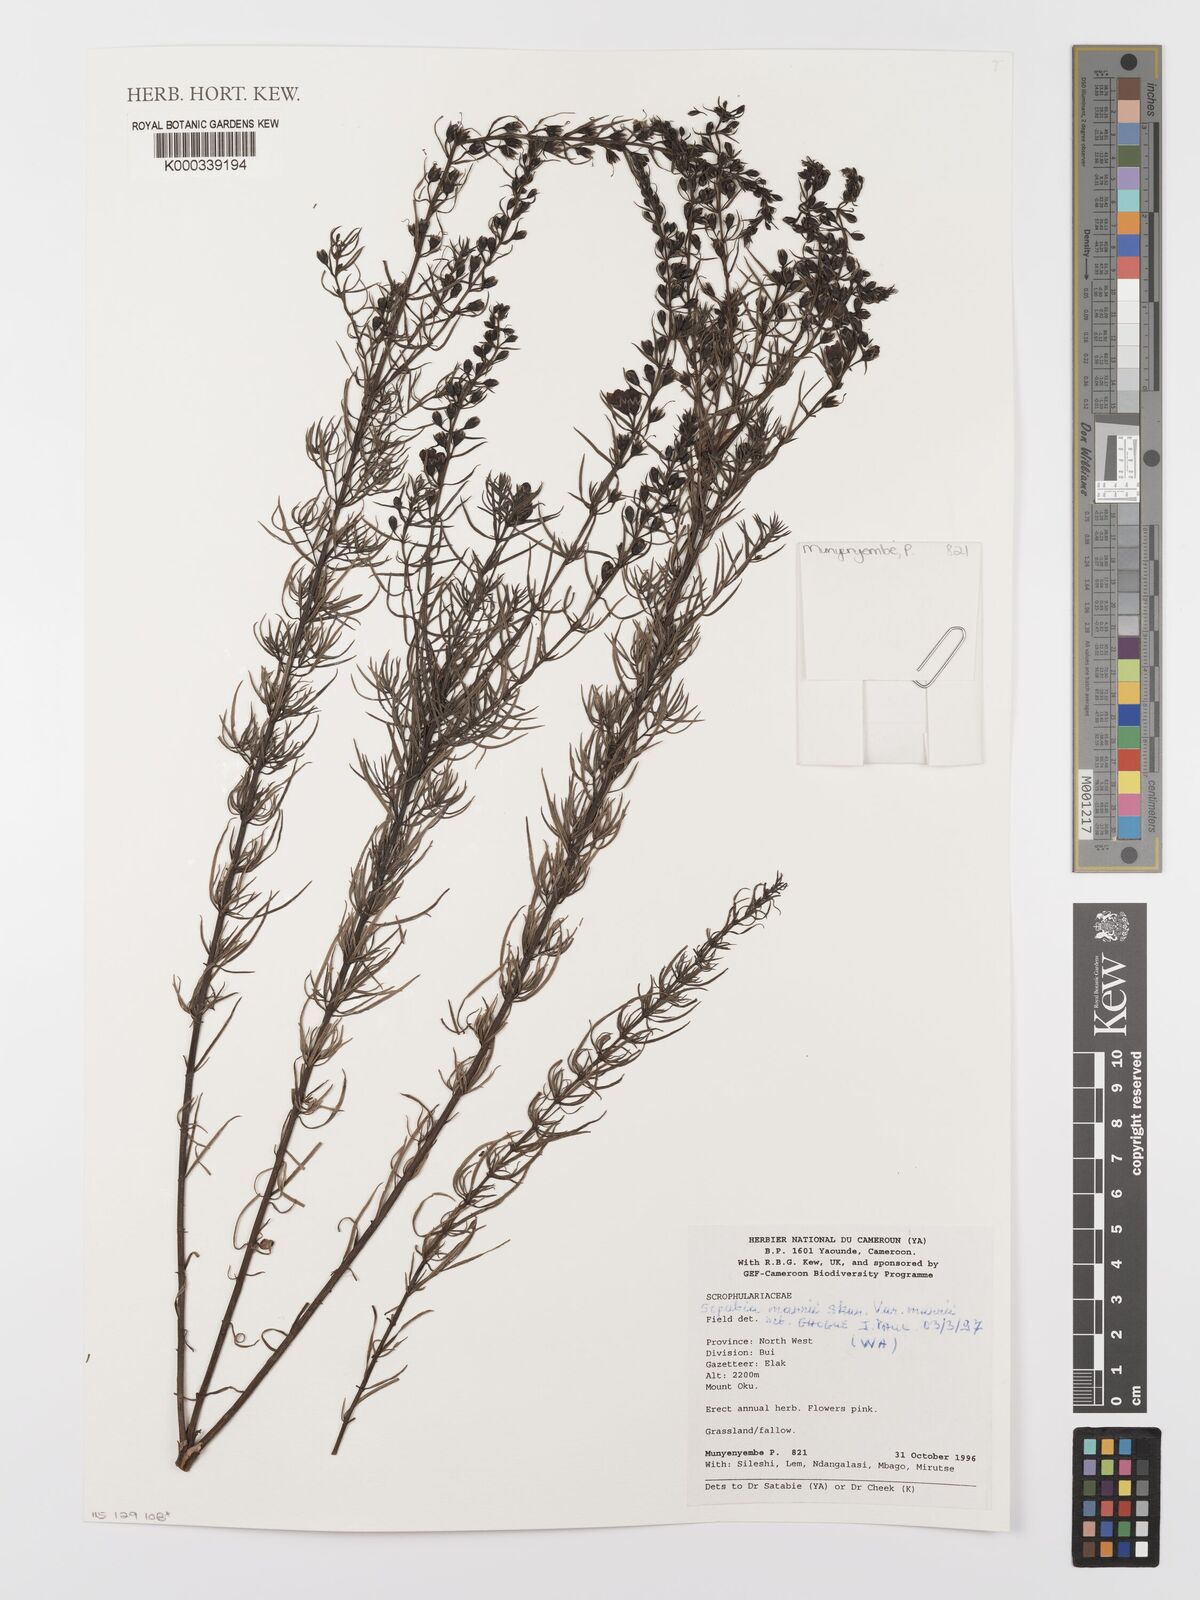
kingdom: Plantae
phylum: Tracheophyta
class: Magnoliopsida
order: Lamiales
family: Orobanchaceae
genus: Sopubia
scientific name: Sopubia mannii
